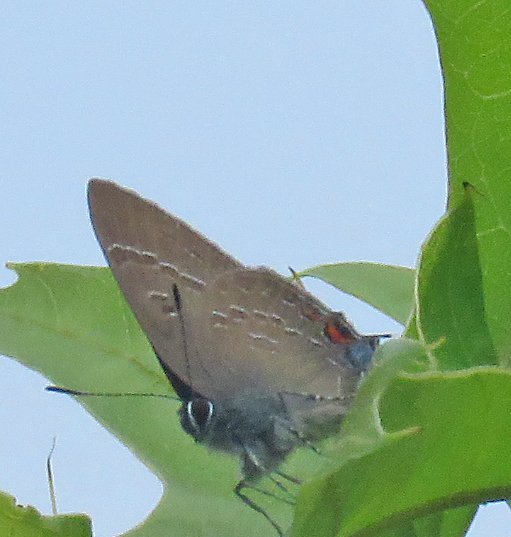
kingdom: Animalia
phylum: Arthropoda
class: Insecta
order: Lepidoptera
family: Lycaenidae
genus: Satyrium
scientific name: Satyrium calanus
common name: Banded Hairstreak
